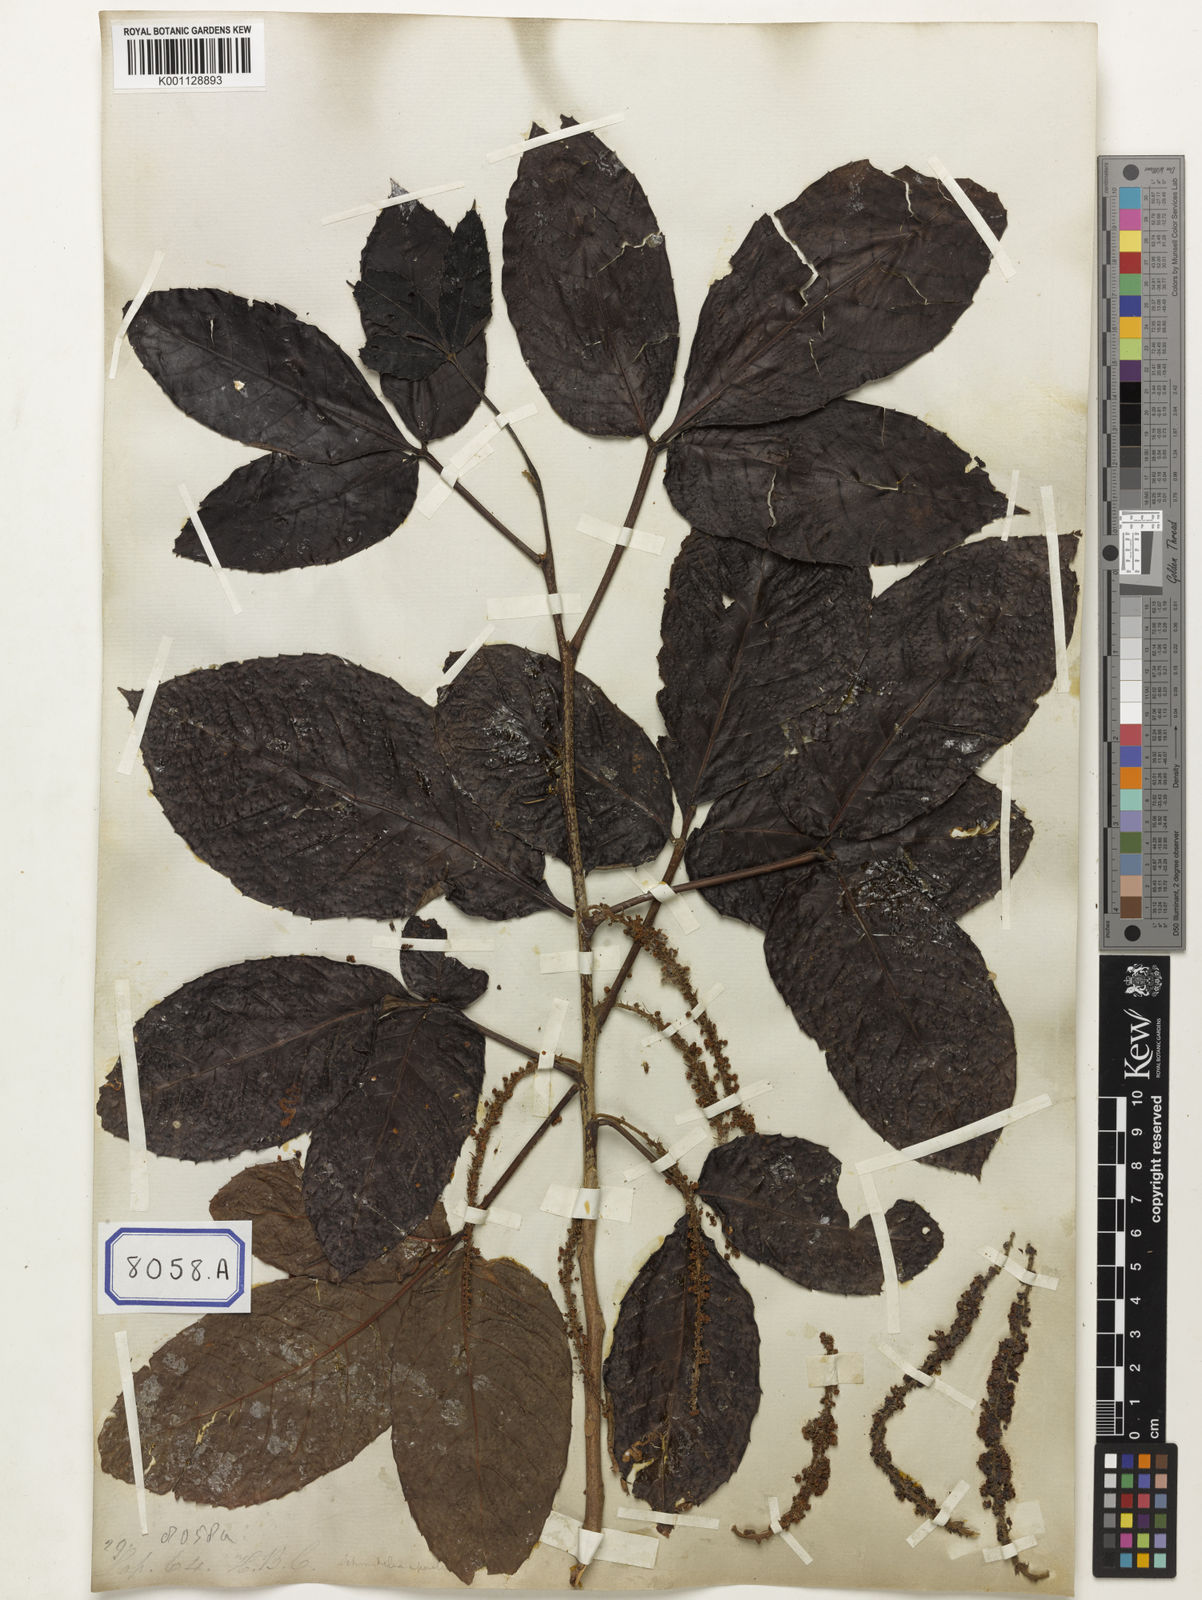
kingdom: Plantae
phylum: Tracheophyta
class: Magnoliopsida
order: Malpighiales
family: Calophyllaceae
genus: Calophyllum
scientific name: Calophyllum
